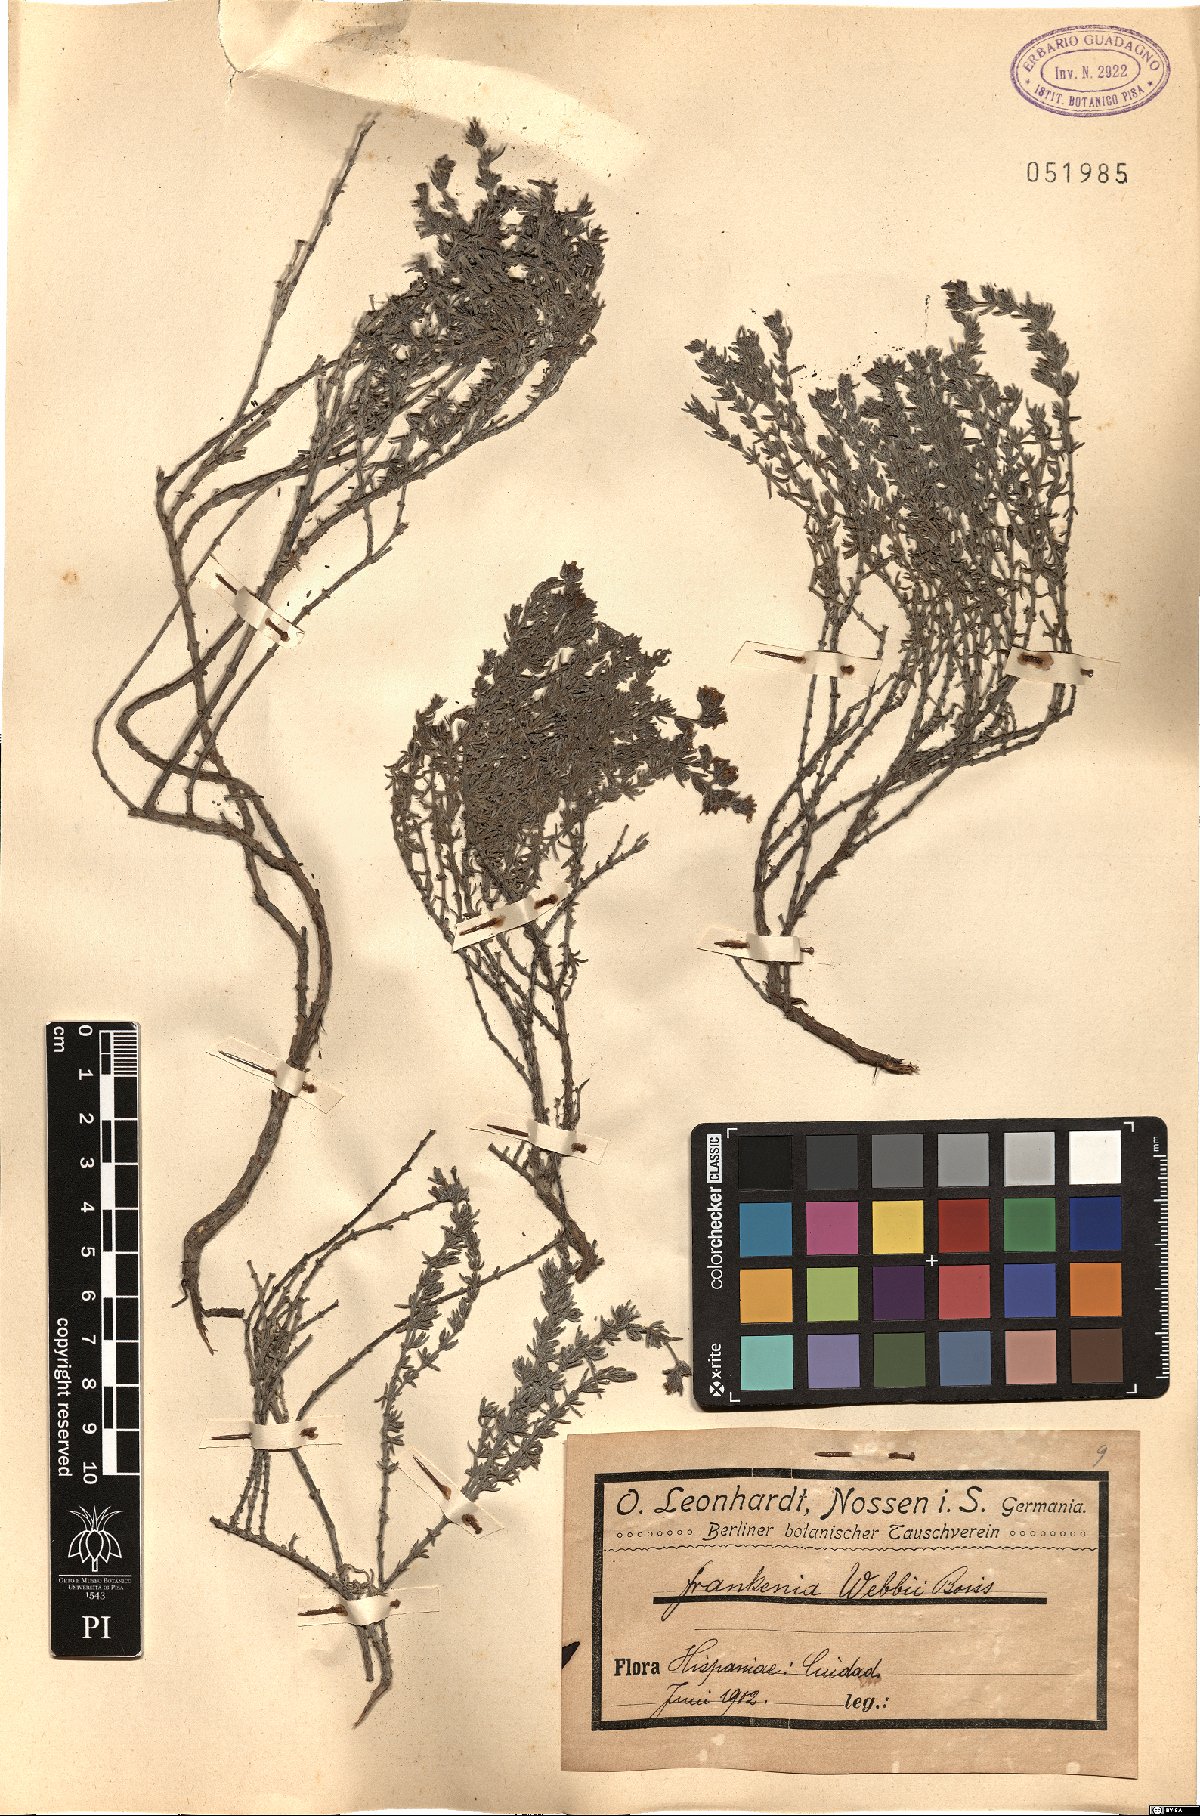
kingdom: Plantae
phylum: Tracheophyta
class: Magnoliopsida
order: Caryophyllales
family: Frankeniaceae
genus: Frankenia
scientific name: Frankenia corymbosa
